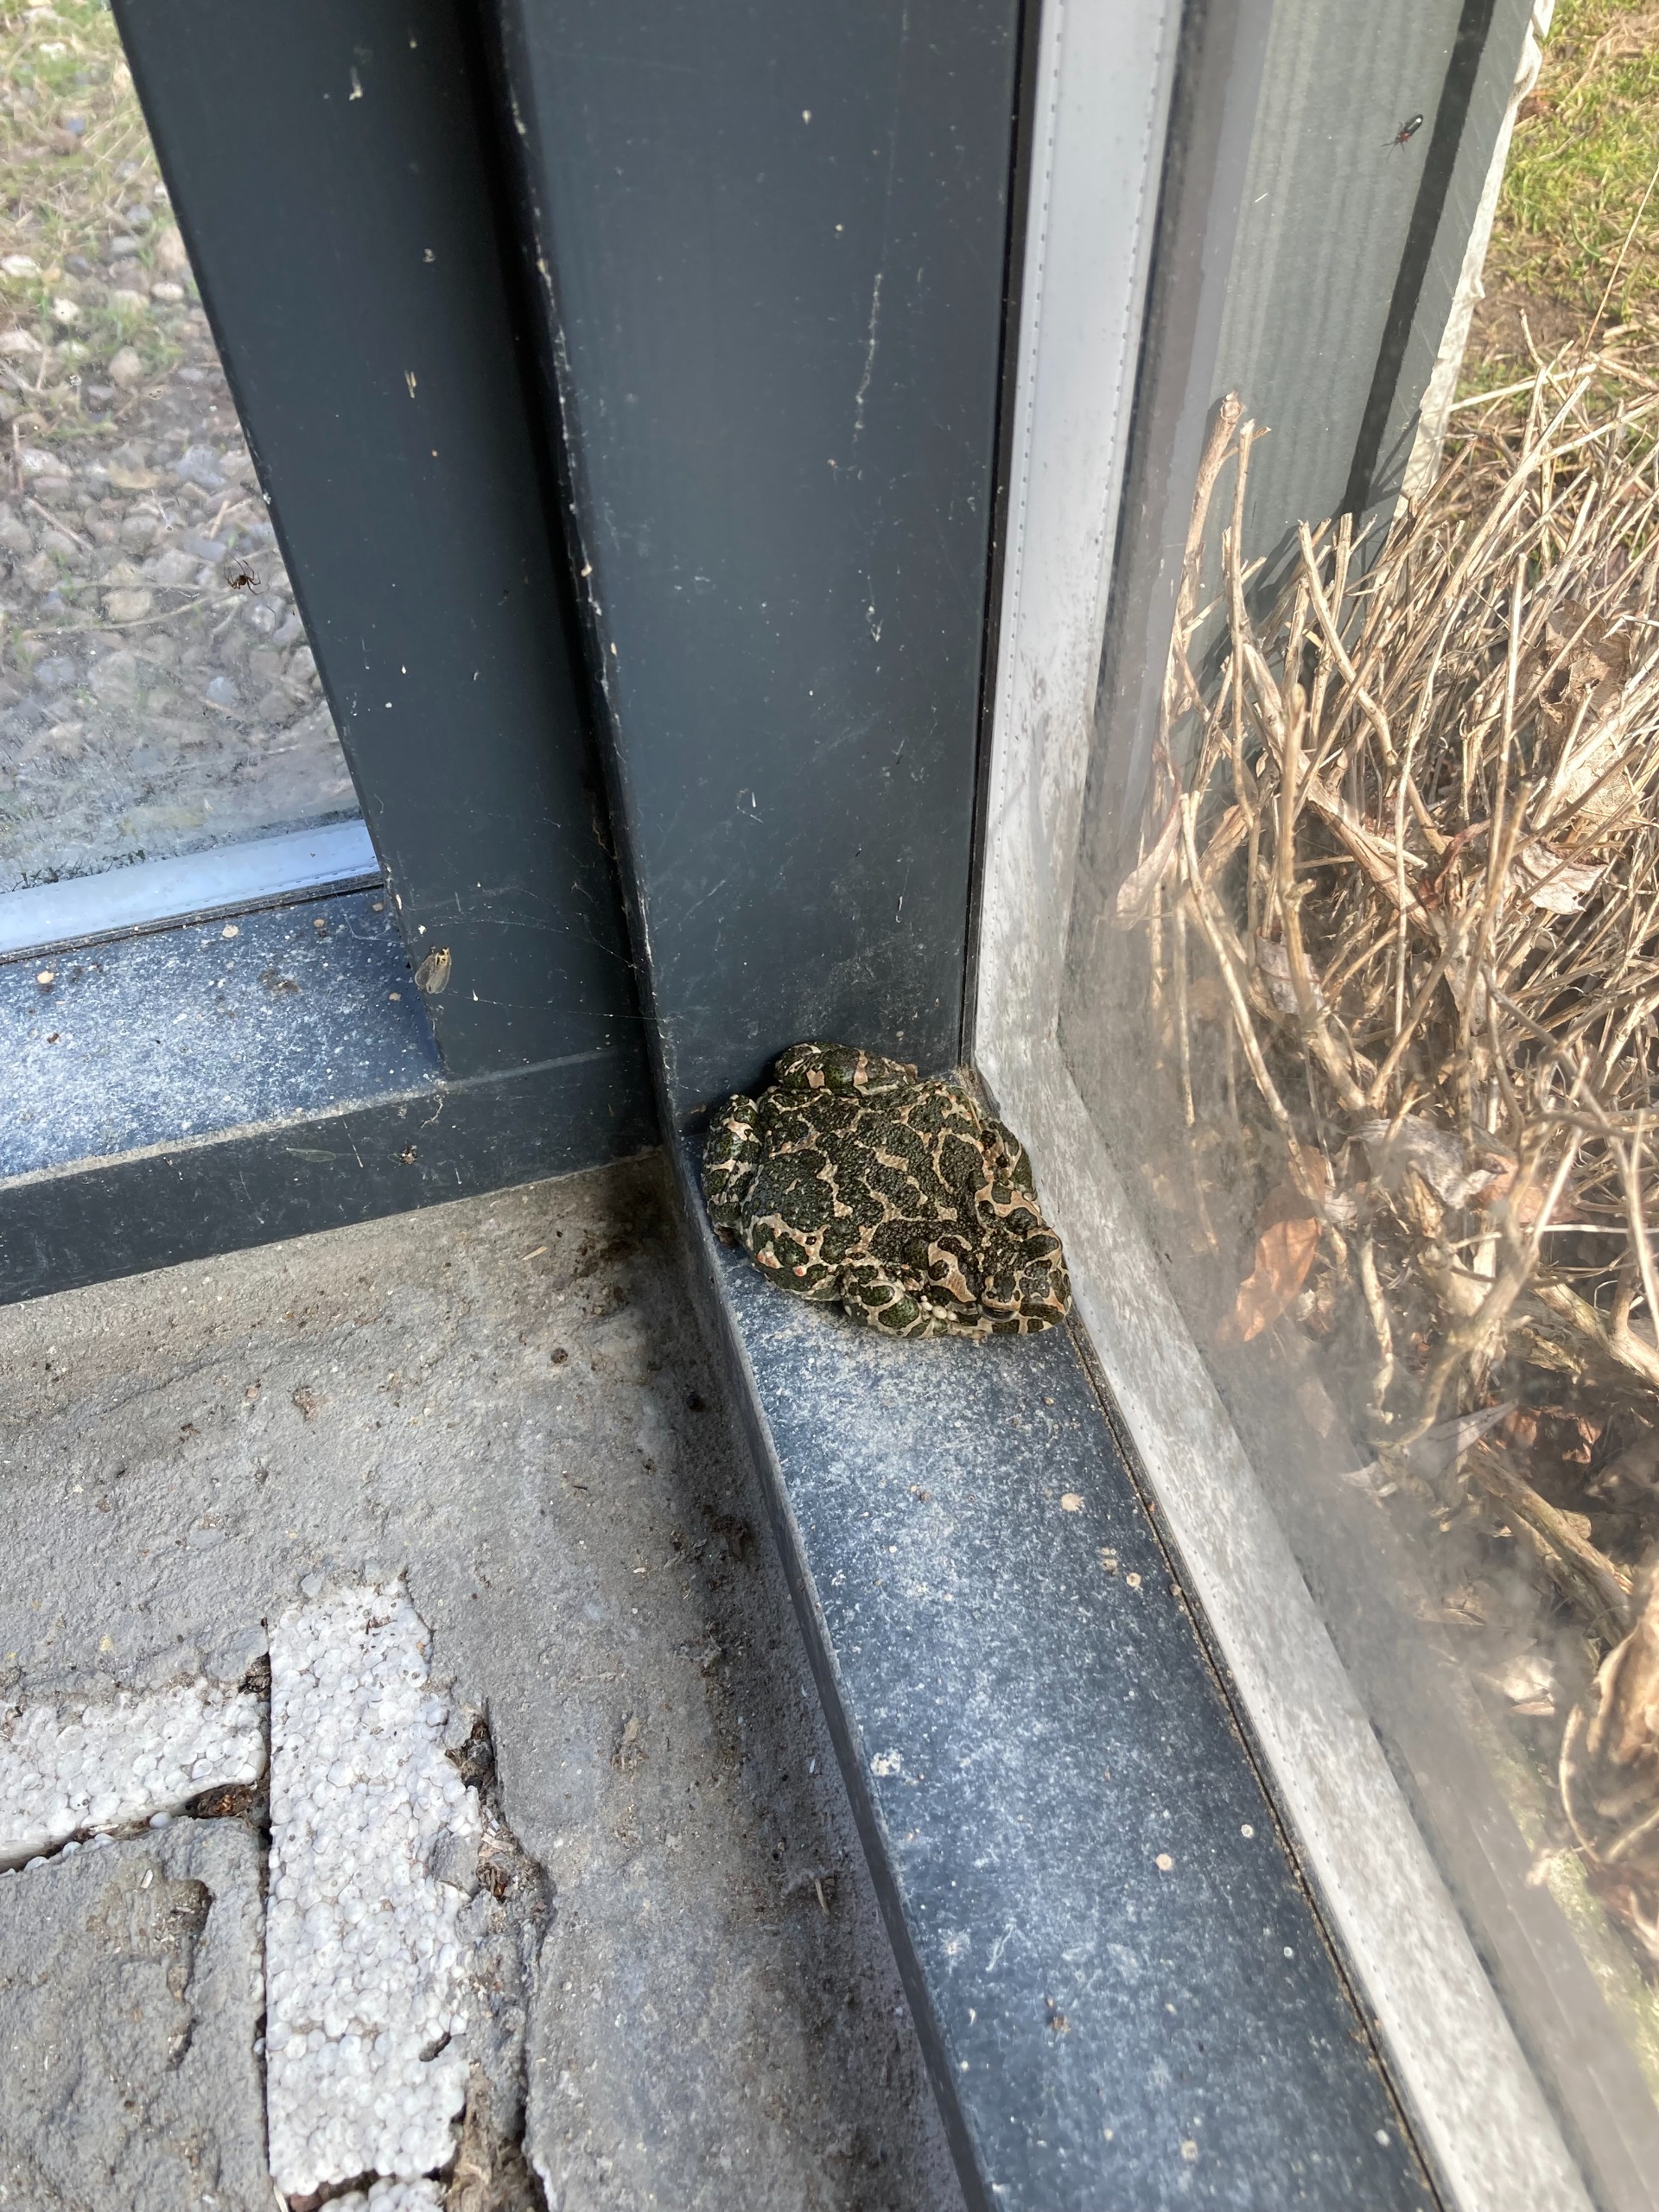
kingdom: Animalia
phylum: Chordata
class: Amphibia
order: Anura
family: Bufonidae
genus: Bufotes
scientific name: Bufotes viridis
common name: Grønbroget tudse
